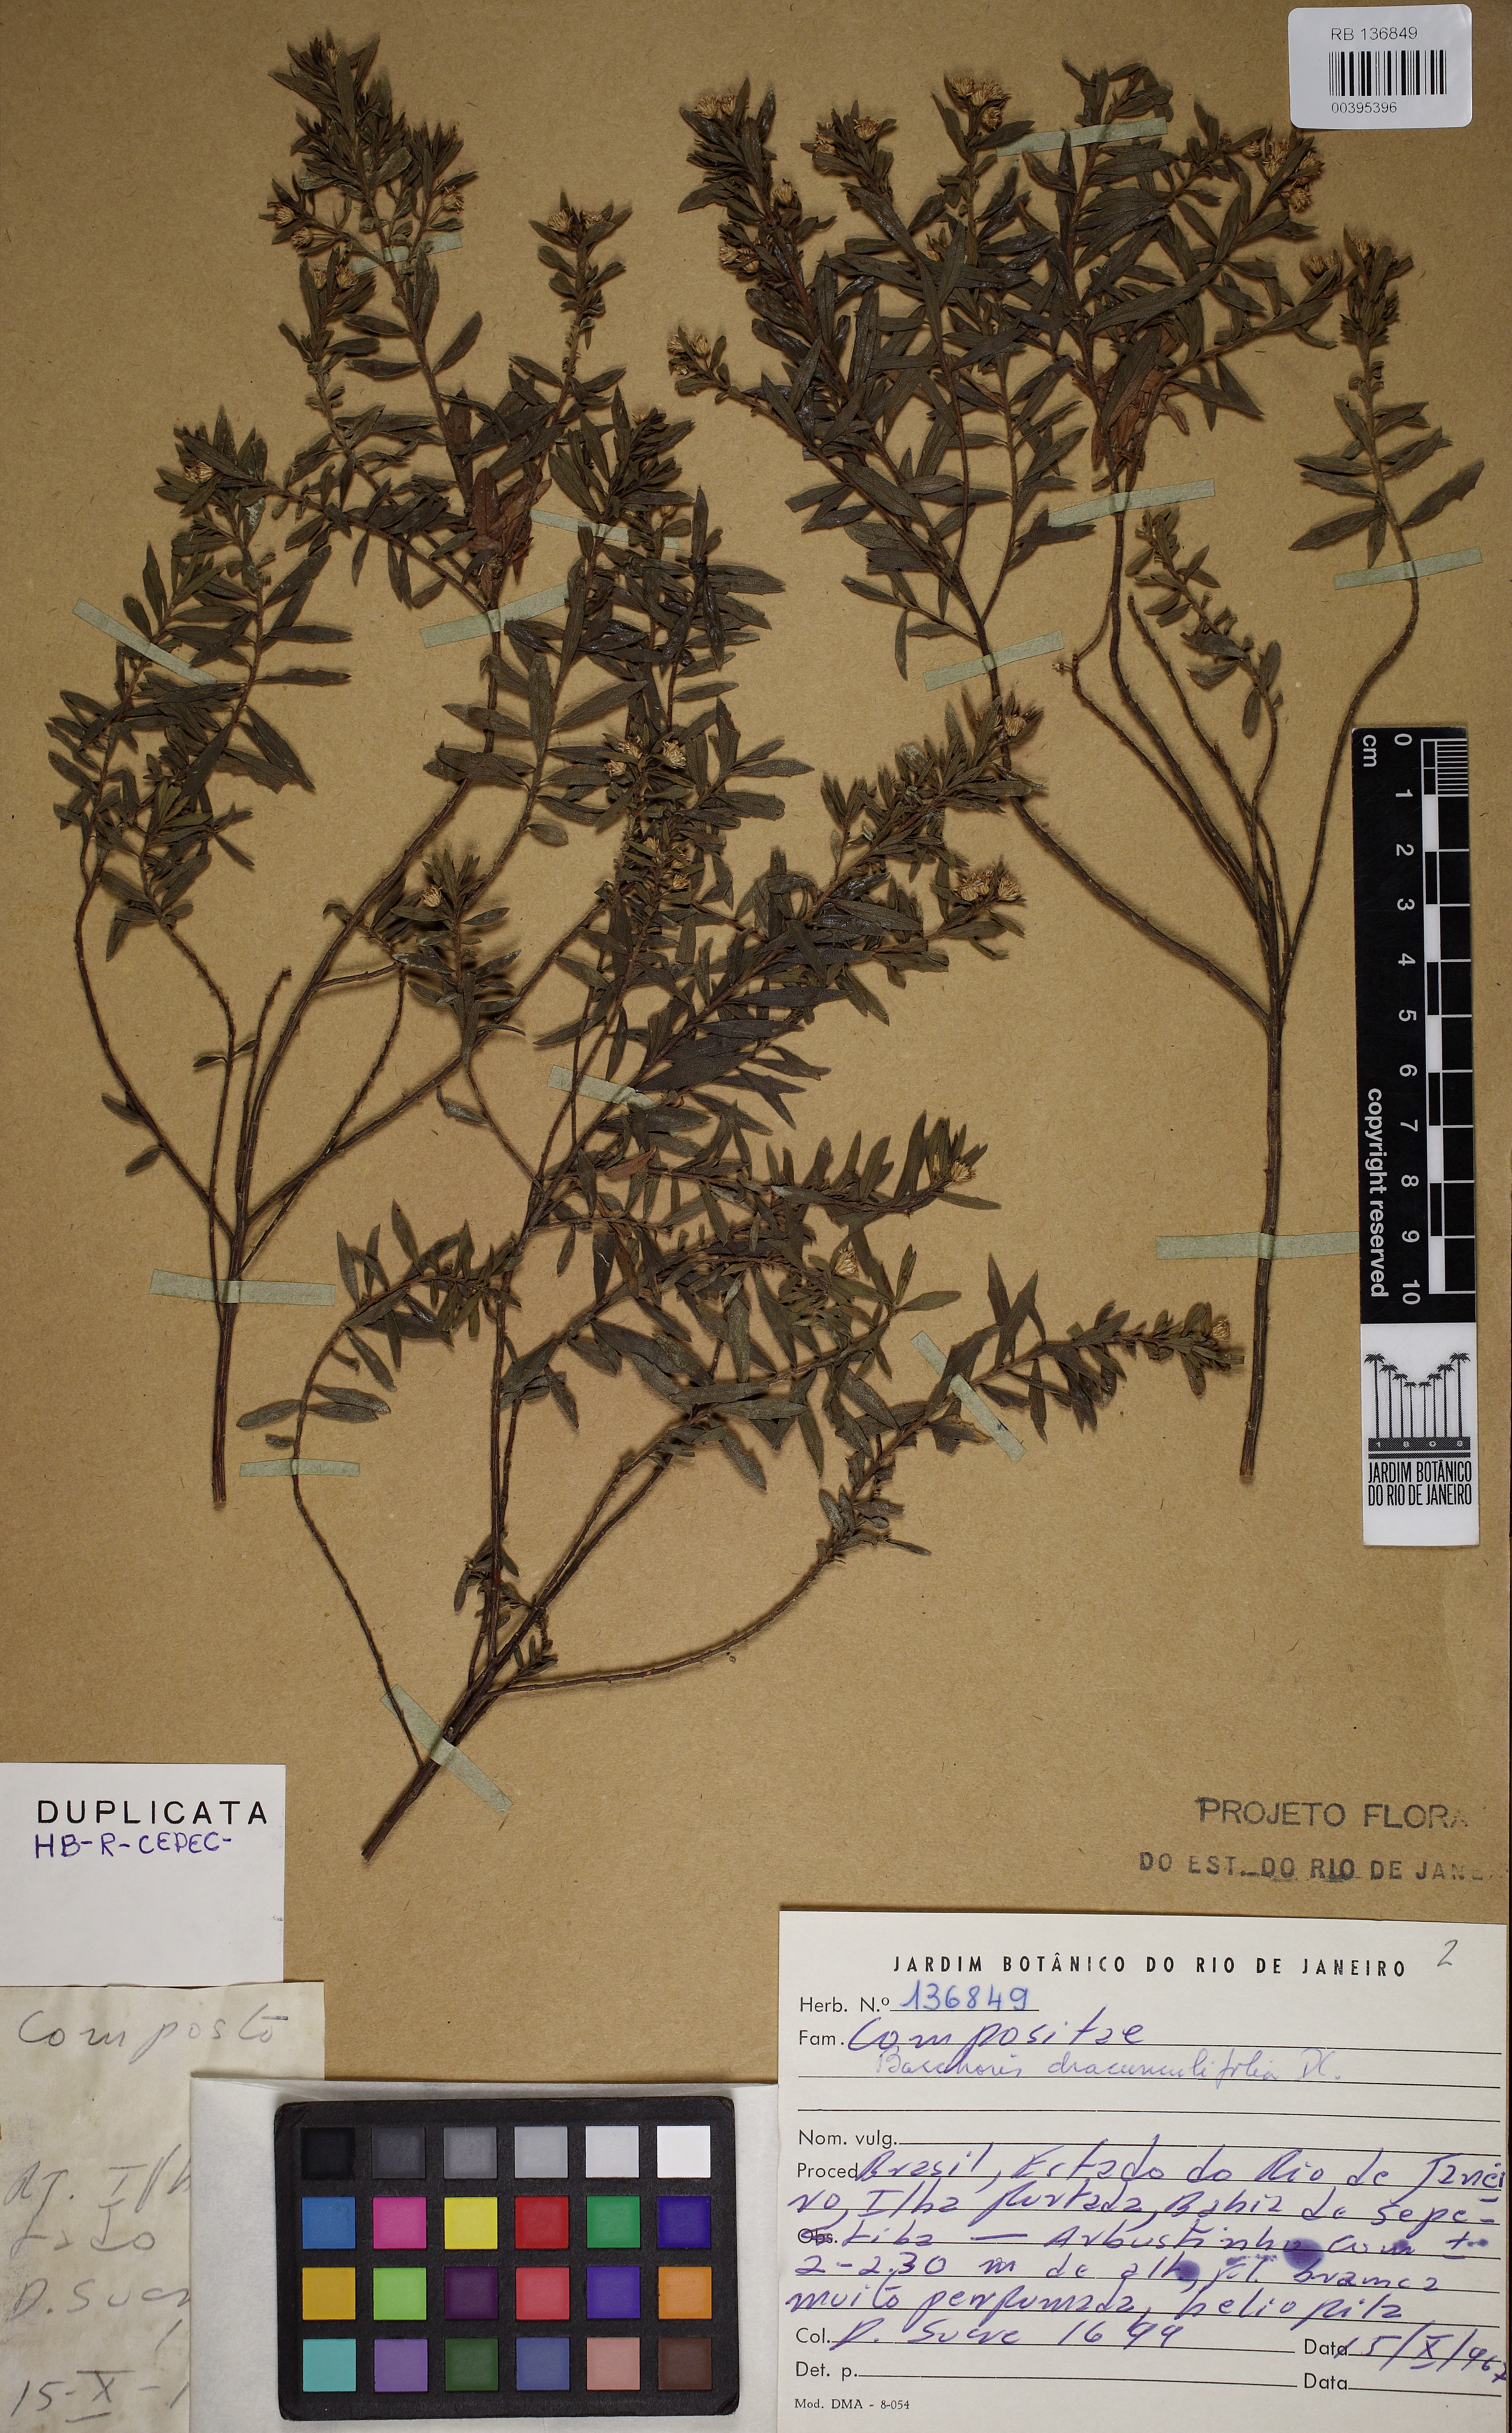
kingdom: Plantae
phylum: Tracheophyta
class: Magnoliopsida
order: Asterales
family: Asteraceae
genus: Baccharis
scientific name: Baccharis dracunculifolia
